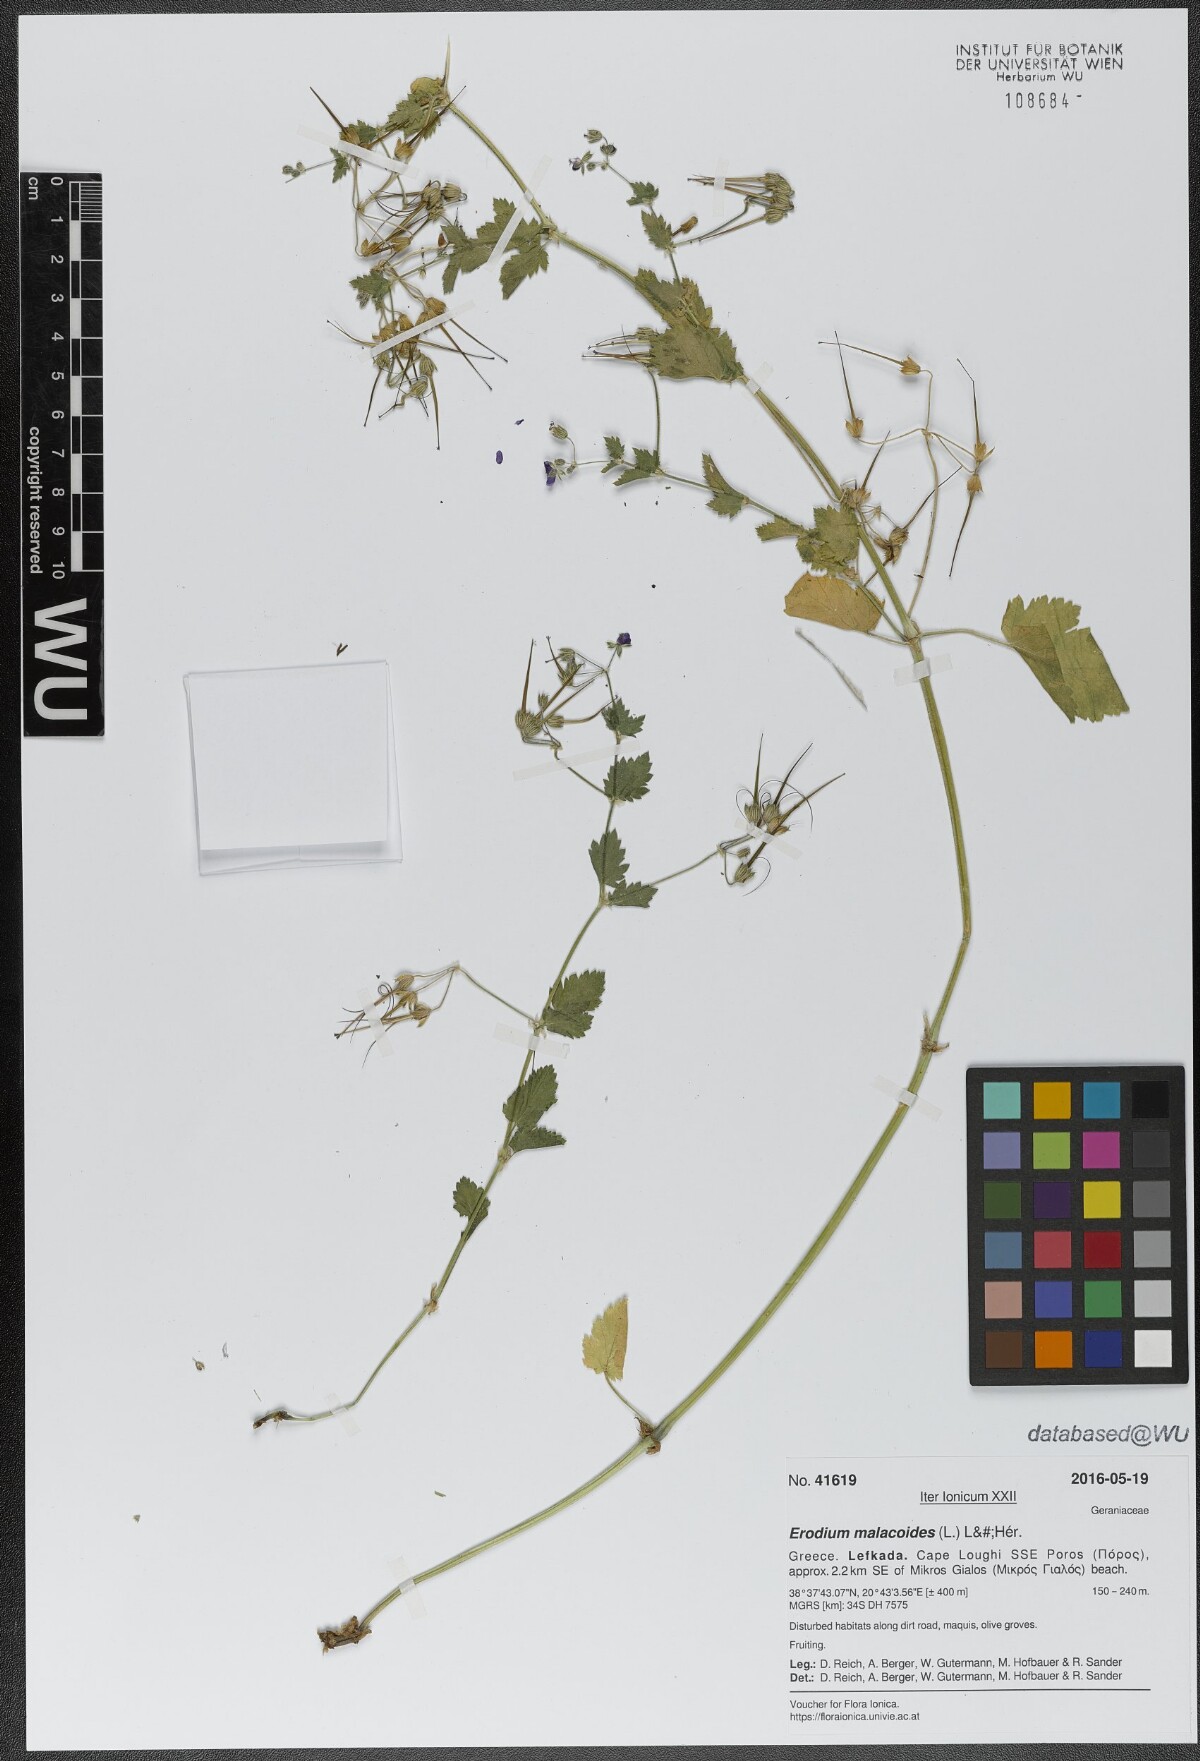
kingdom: Plantae
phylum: Tracheophyta
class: Magnoliopsida
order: Geraniales
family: Geraniaceae
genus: Erodium
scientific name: Erodium malacoides
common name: Soft stork's-bill
